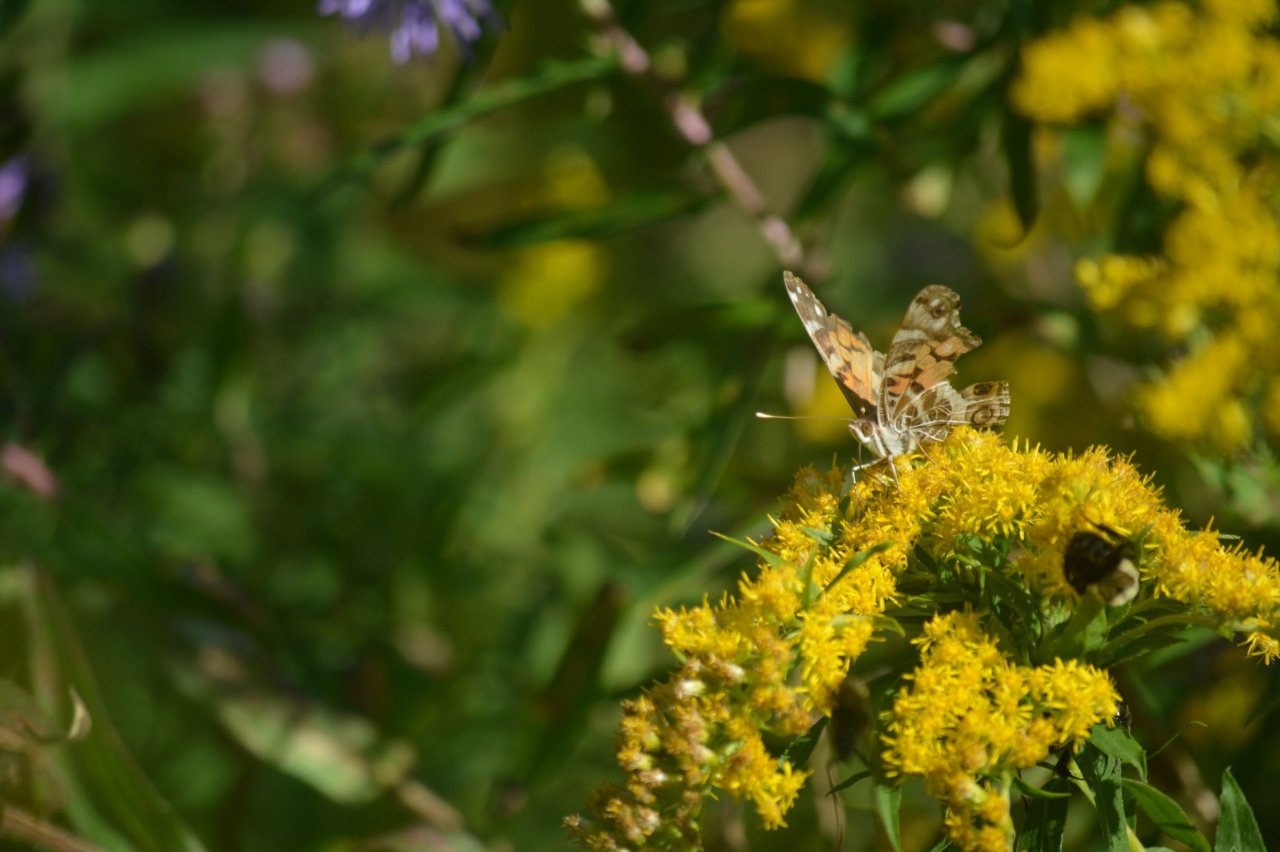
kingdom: Animalia
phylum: Arthropoda
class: Insecta
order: Lepidoptera
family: Nymphalidae
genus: Vanessa
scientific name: Vanessa virginiensis
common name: American Lady
